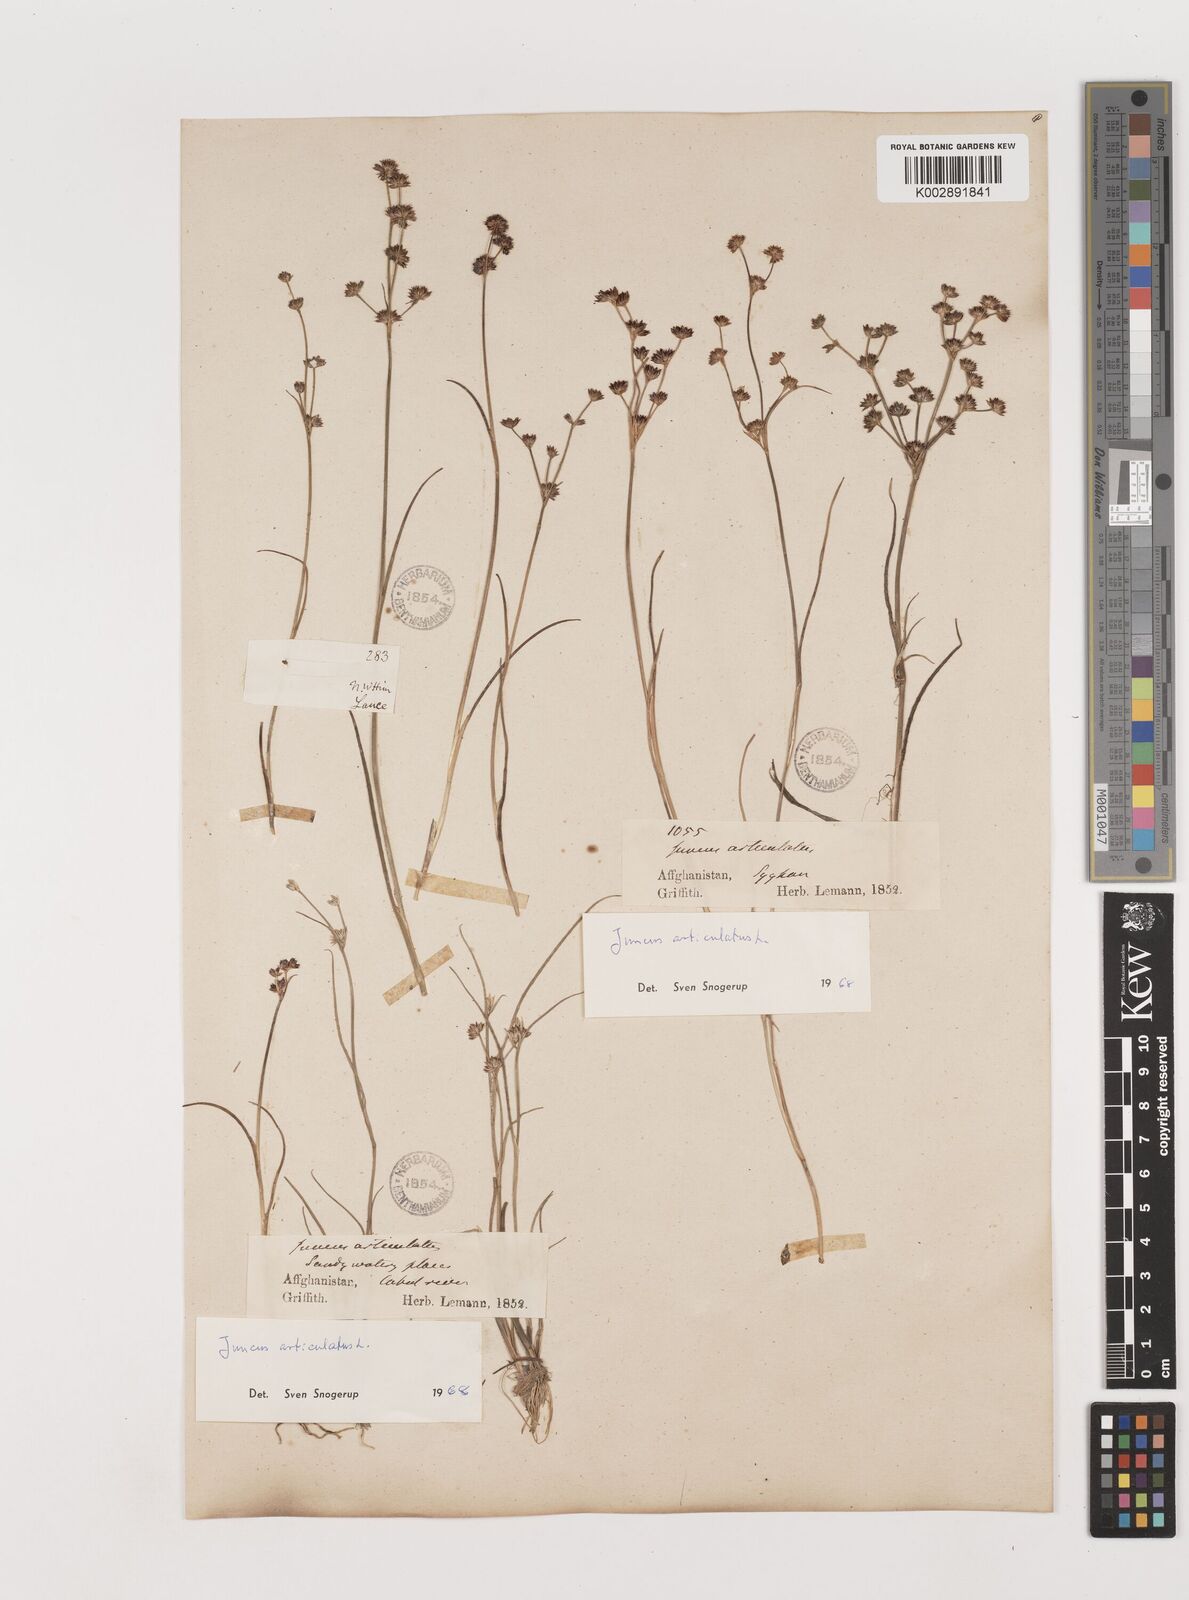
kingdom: Plantae
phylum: Tracheophyta
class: Liliopsida
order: Poales
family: Juncaceae
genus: Juncus
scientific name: Juncus articulatus
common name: Jointed rush
